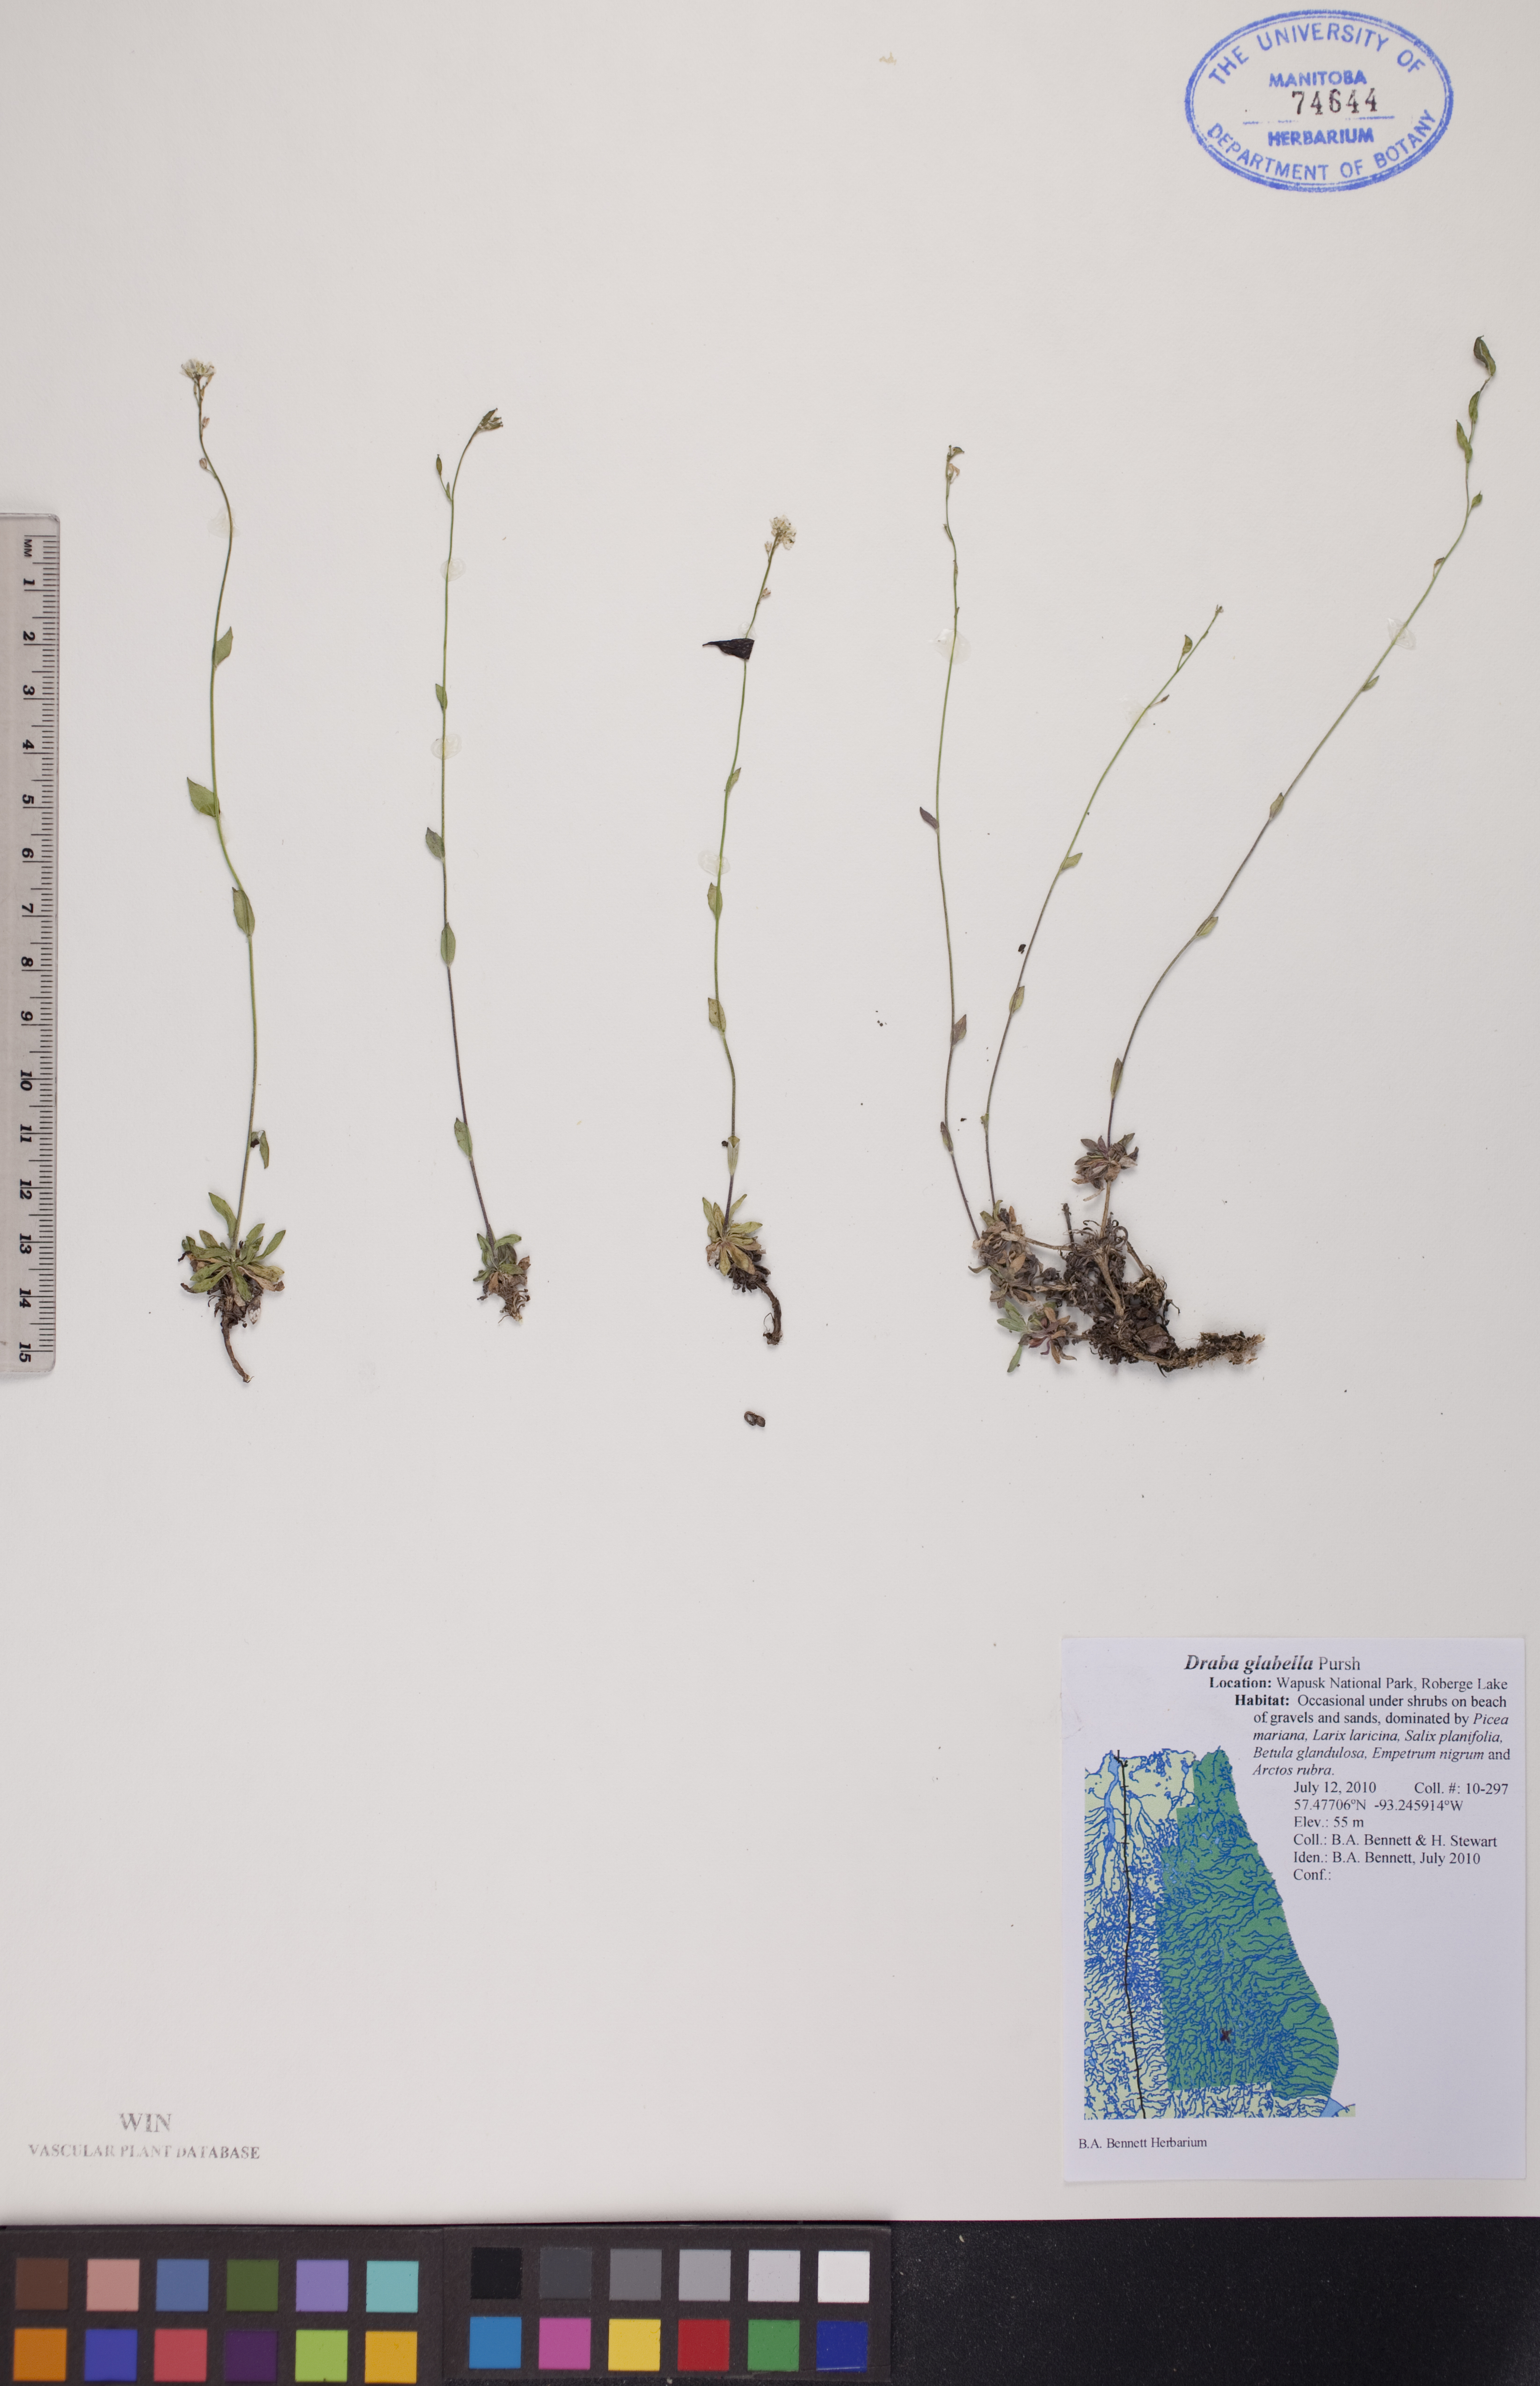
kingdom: Plantae
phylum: Tracheophyta
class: Magnoliopsida
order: Brassicales
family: Brassicaceae
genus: Draba
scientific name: Draba glabella
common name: Glaucous draba
